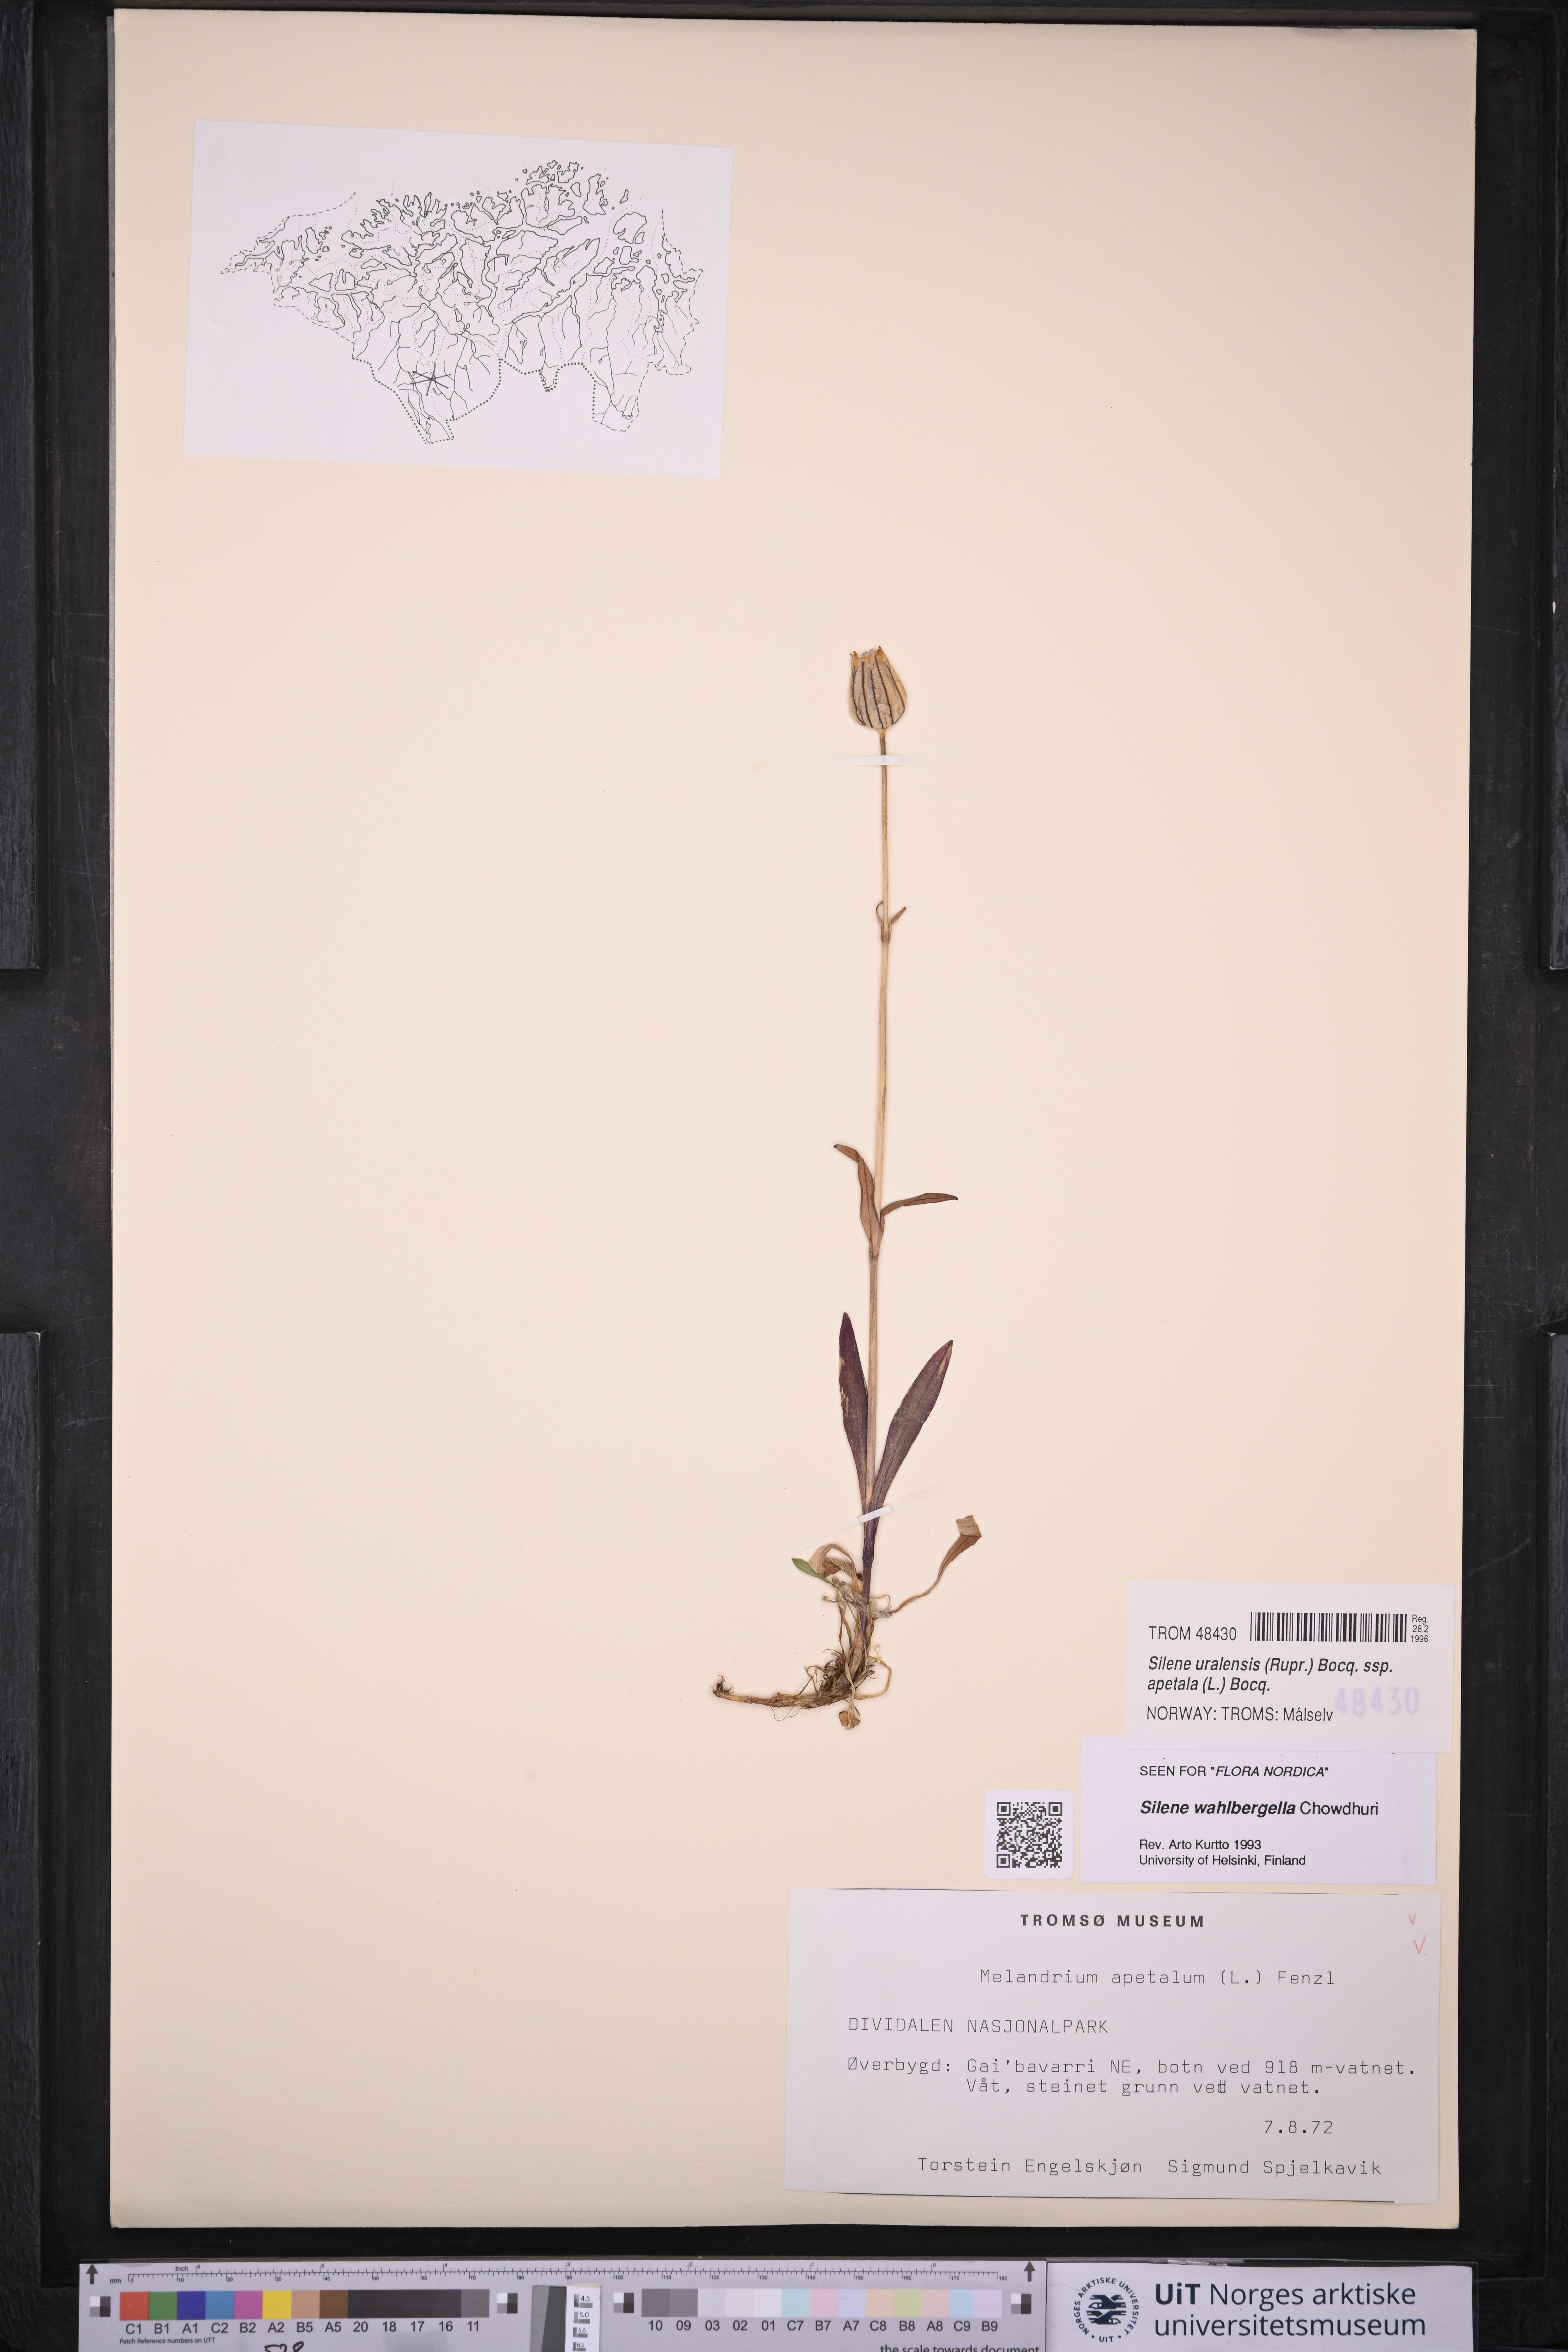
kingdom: Plantae
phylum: Tracheophyta
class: Magnoliopsida
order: Caryophyllales
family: Caryophyllaceae
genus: Silene
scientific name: Silene wahlbergella
